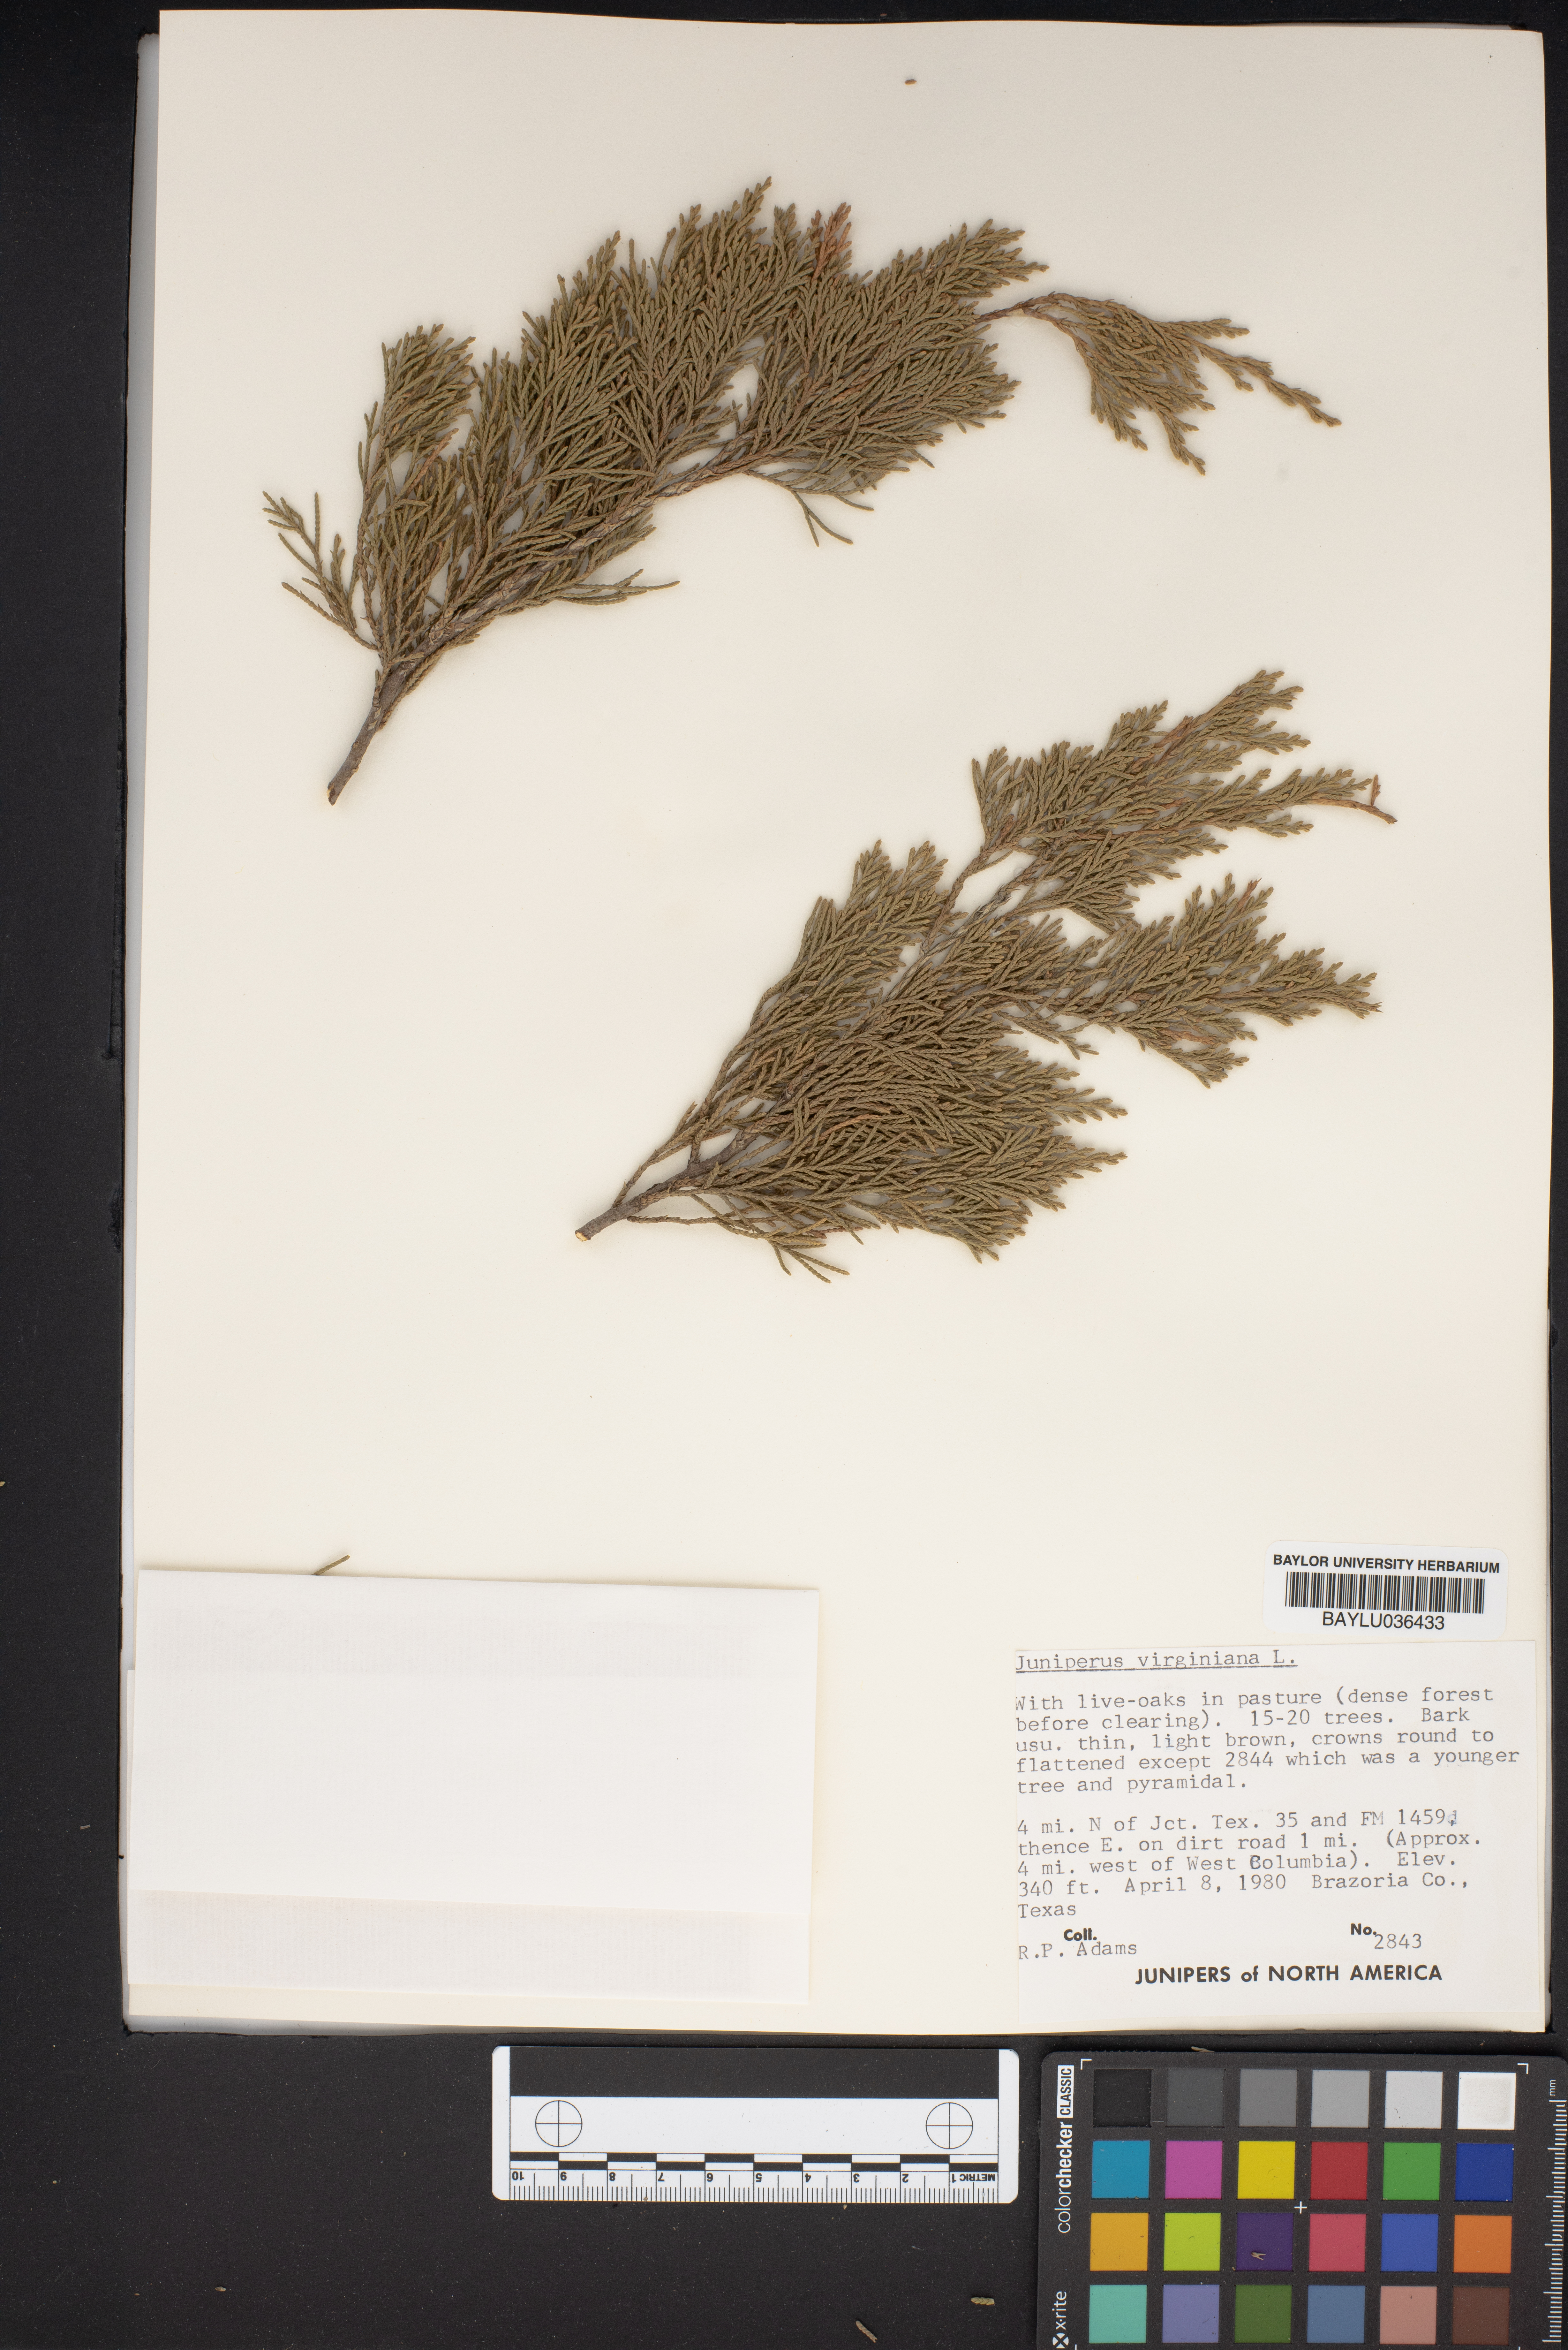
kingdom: Plantae
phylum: Tracheophyta
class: Pinopsida
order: Pinales
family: Cupressaceae
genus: Juniperus
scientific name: Juniperus virginiana
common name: Red juniper
